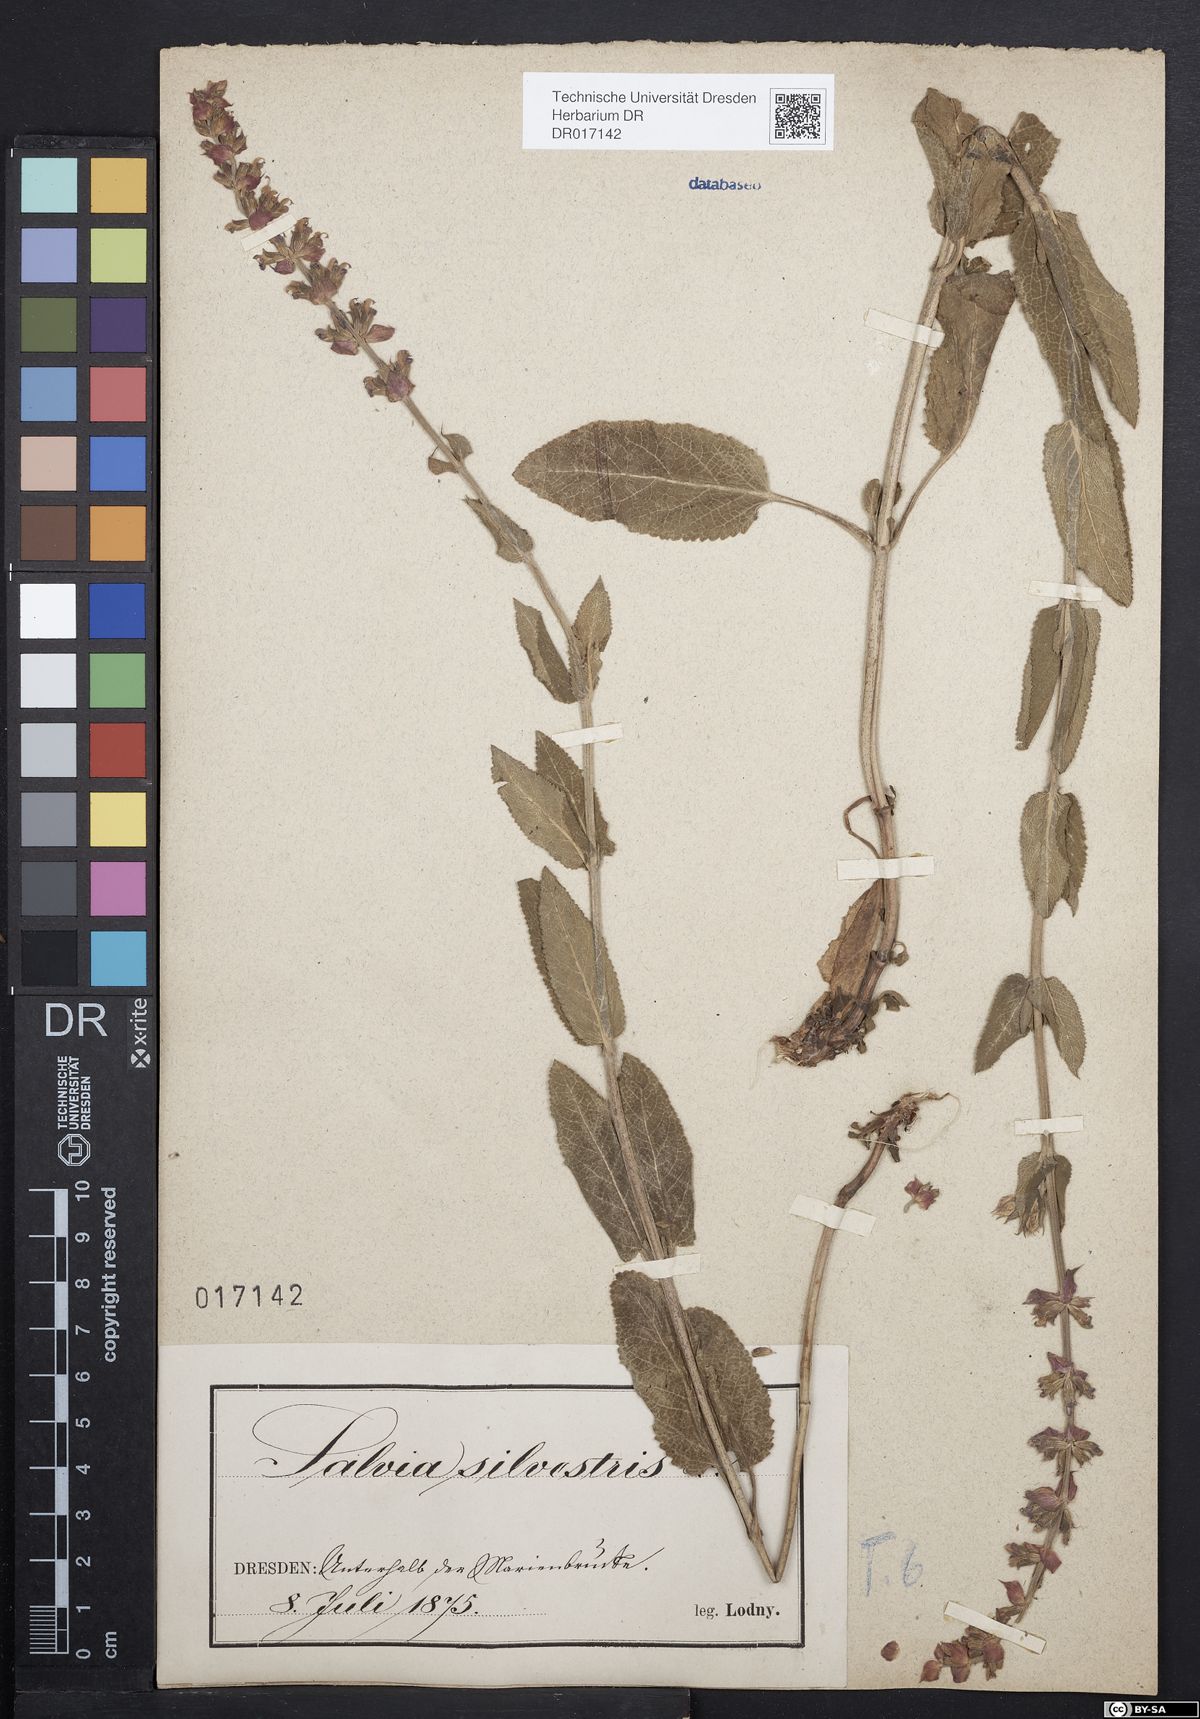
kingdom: Plantae
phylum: Tracheophyta
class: Magnoliopsida
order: Lamiales
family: Lamiaceae
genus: Salvia
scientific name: Salvia nemorosa
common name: Balkan clary
